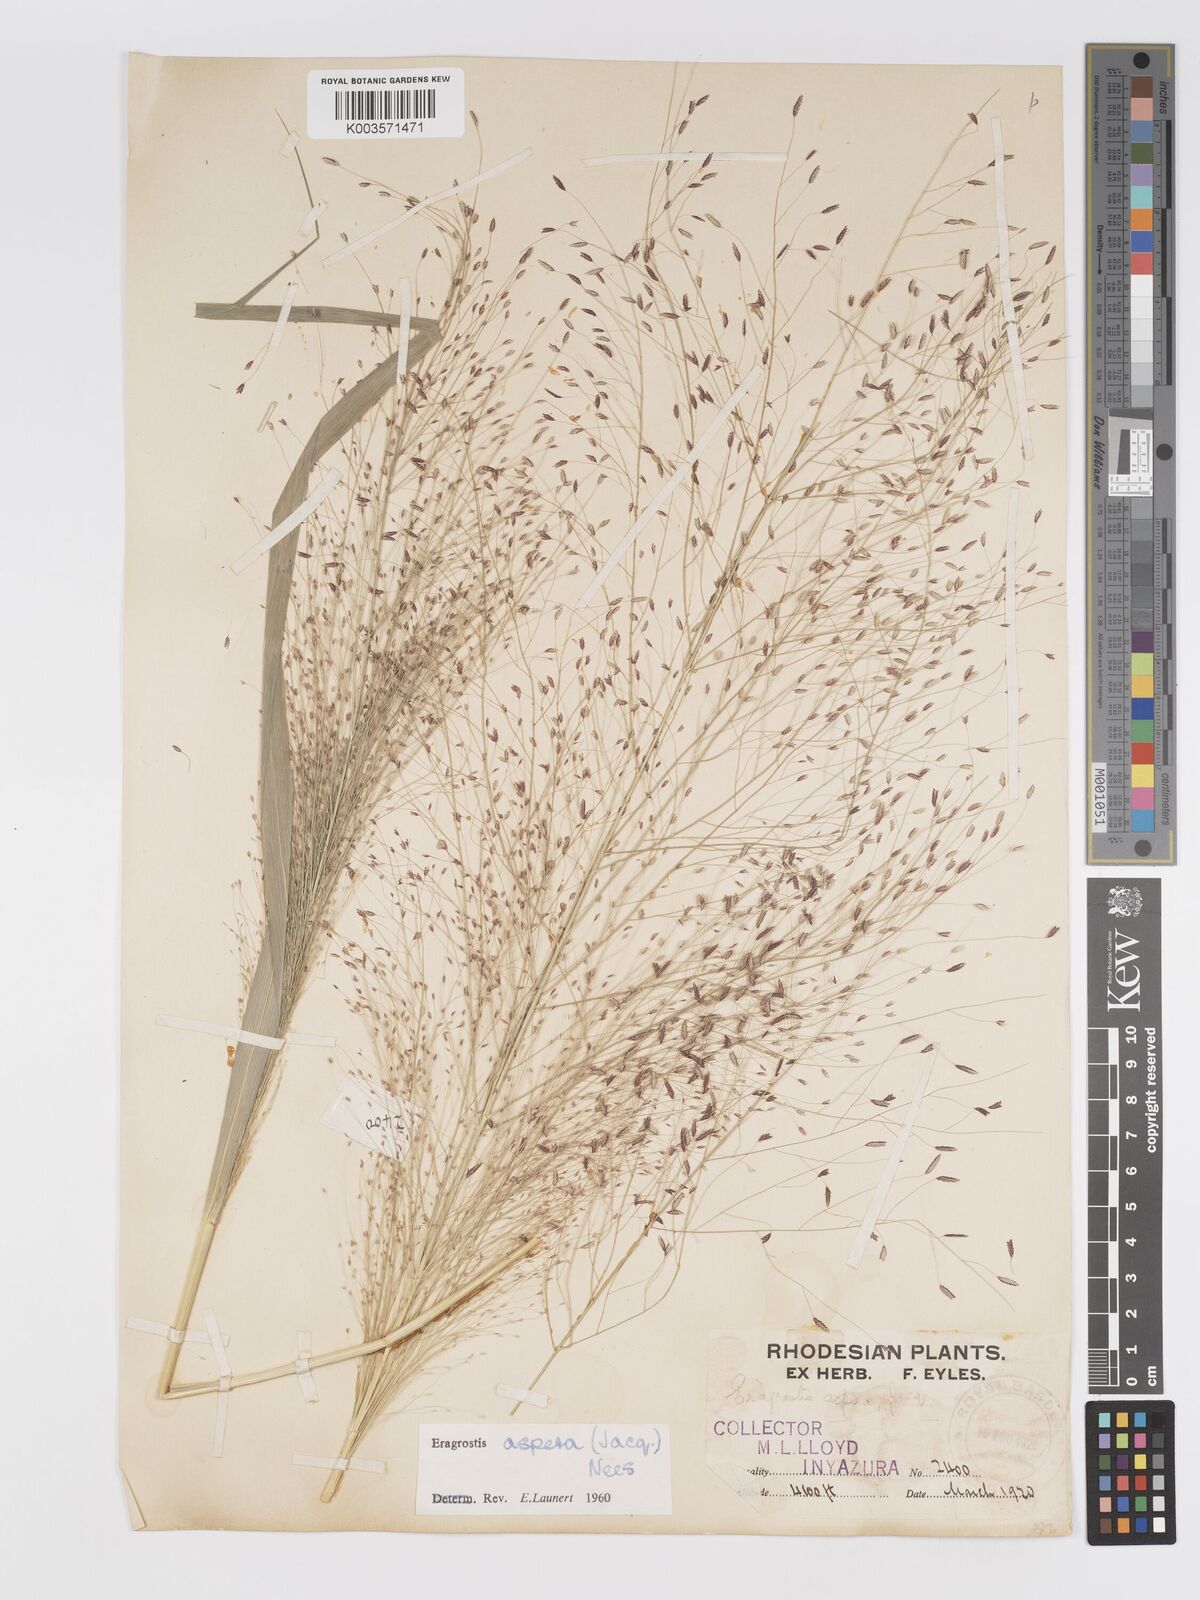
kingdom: Plantae
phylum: Tracheophyta
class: Liliopsida
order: Poales
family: Poaceae
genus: Eragrostis
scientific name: Eragrostis aspera
